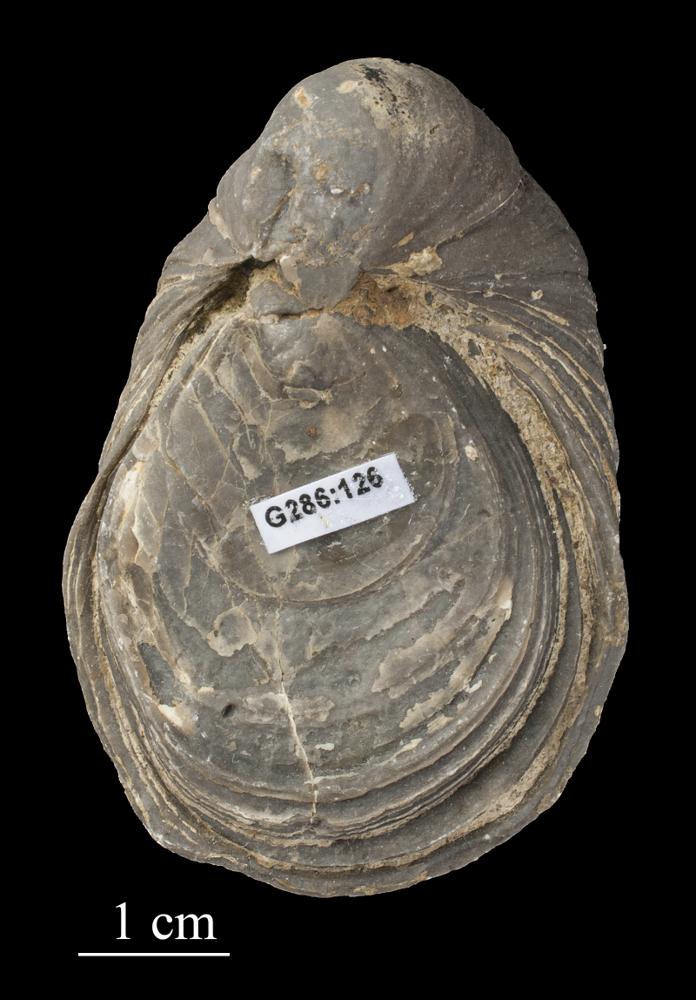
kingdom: Animalia
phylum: Mollusca
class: Bivalvia
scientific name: Bivalvia
